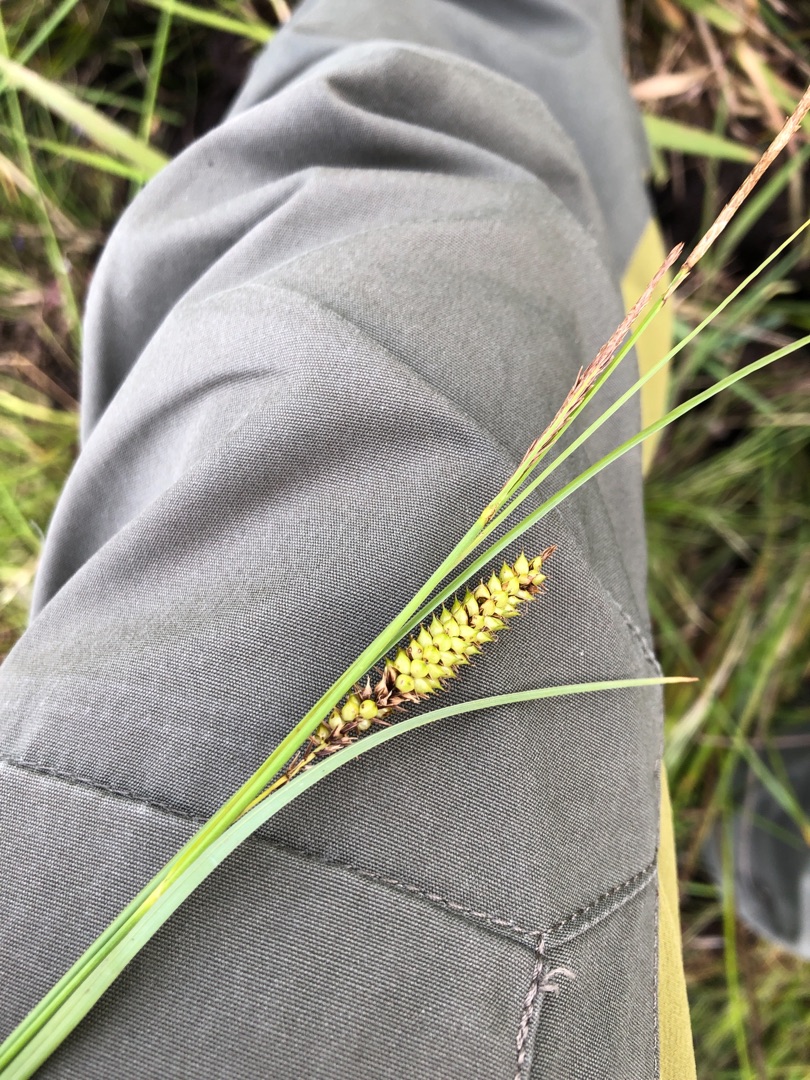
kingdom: Plantae
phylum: Tracheophyta
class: Liliopsida
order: Poales
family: Cyperaceae
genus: Carex
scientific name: Carex rostrata
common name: Næb-star
